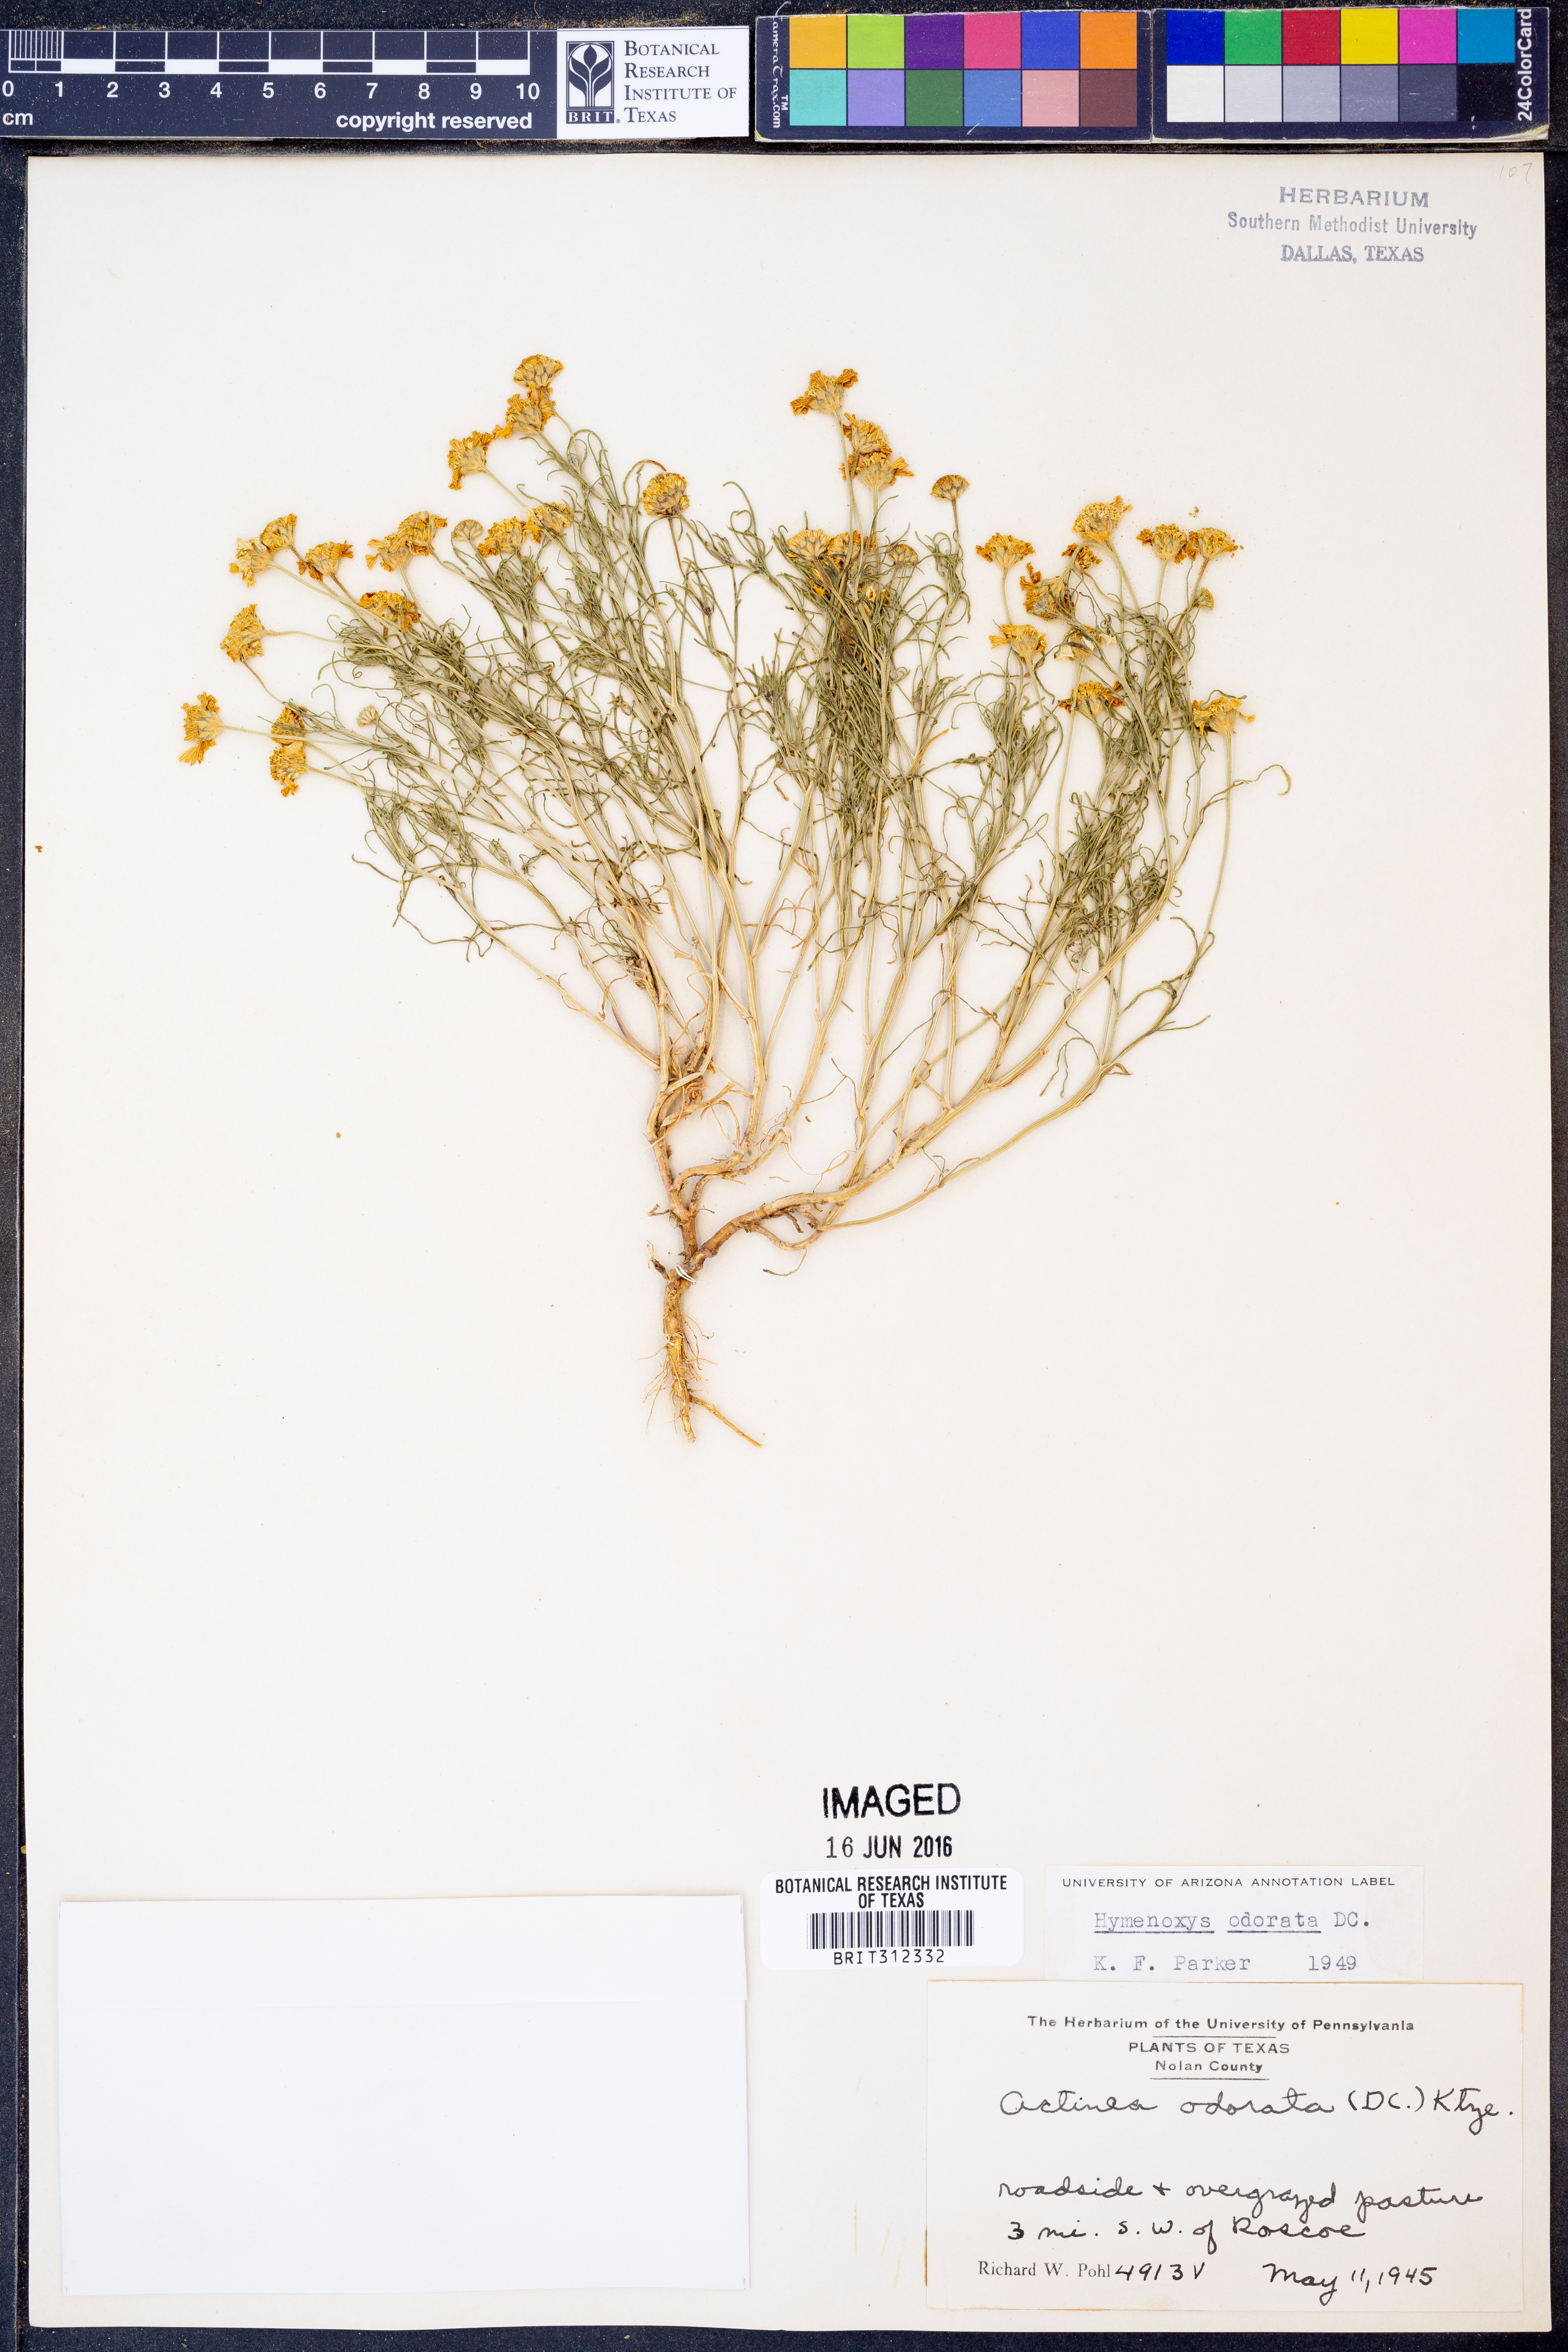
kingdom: Plantae
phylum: Tracheophyta
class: Magnoliopsida
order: Asterales
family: Asteraceae
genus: Hymenoxys
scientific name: Hymenoxys odorata
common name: Bitter rubberweed
